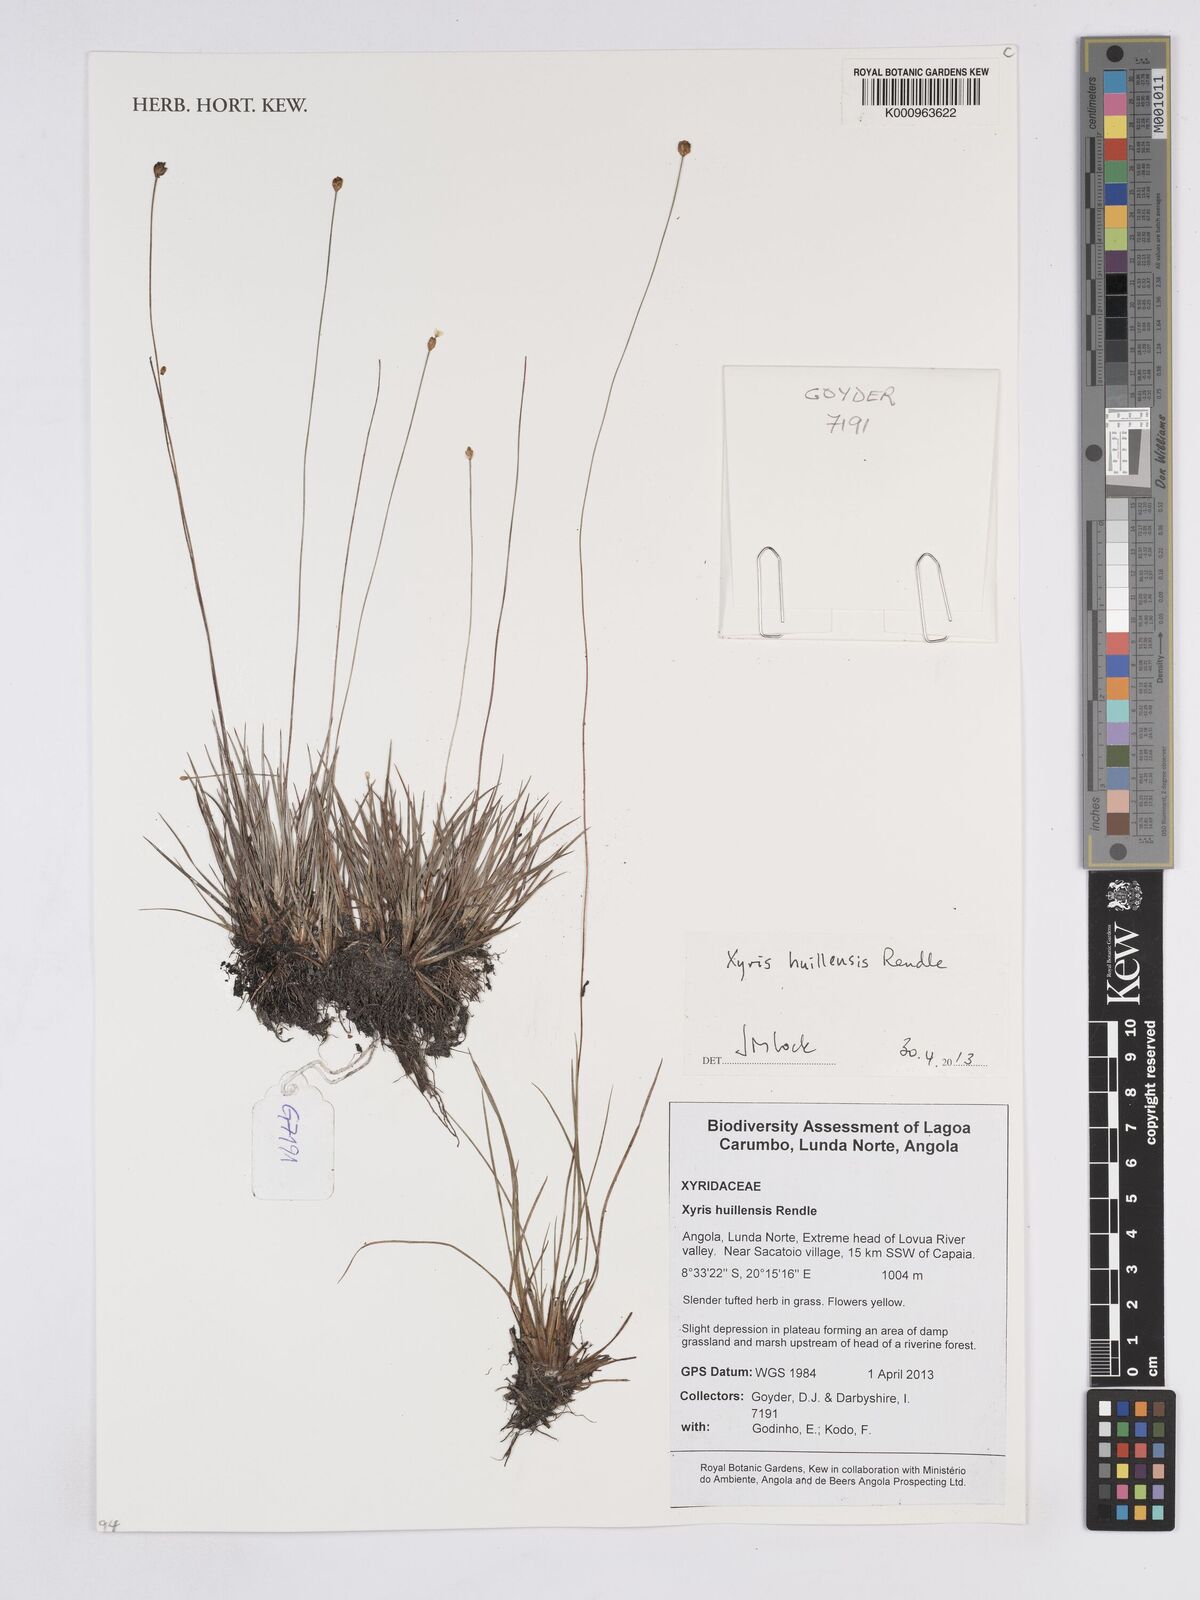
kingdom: Plantae
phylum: Tracheophyta
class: Liliopsida
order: Poales
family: Xyridaceae
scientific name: Xyridaceae
